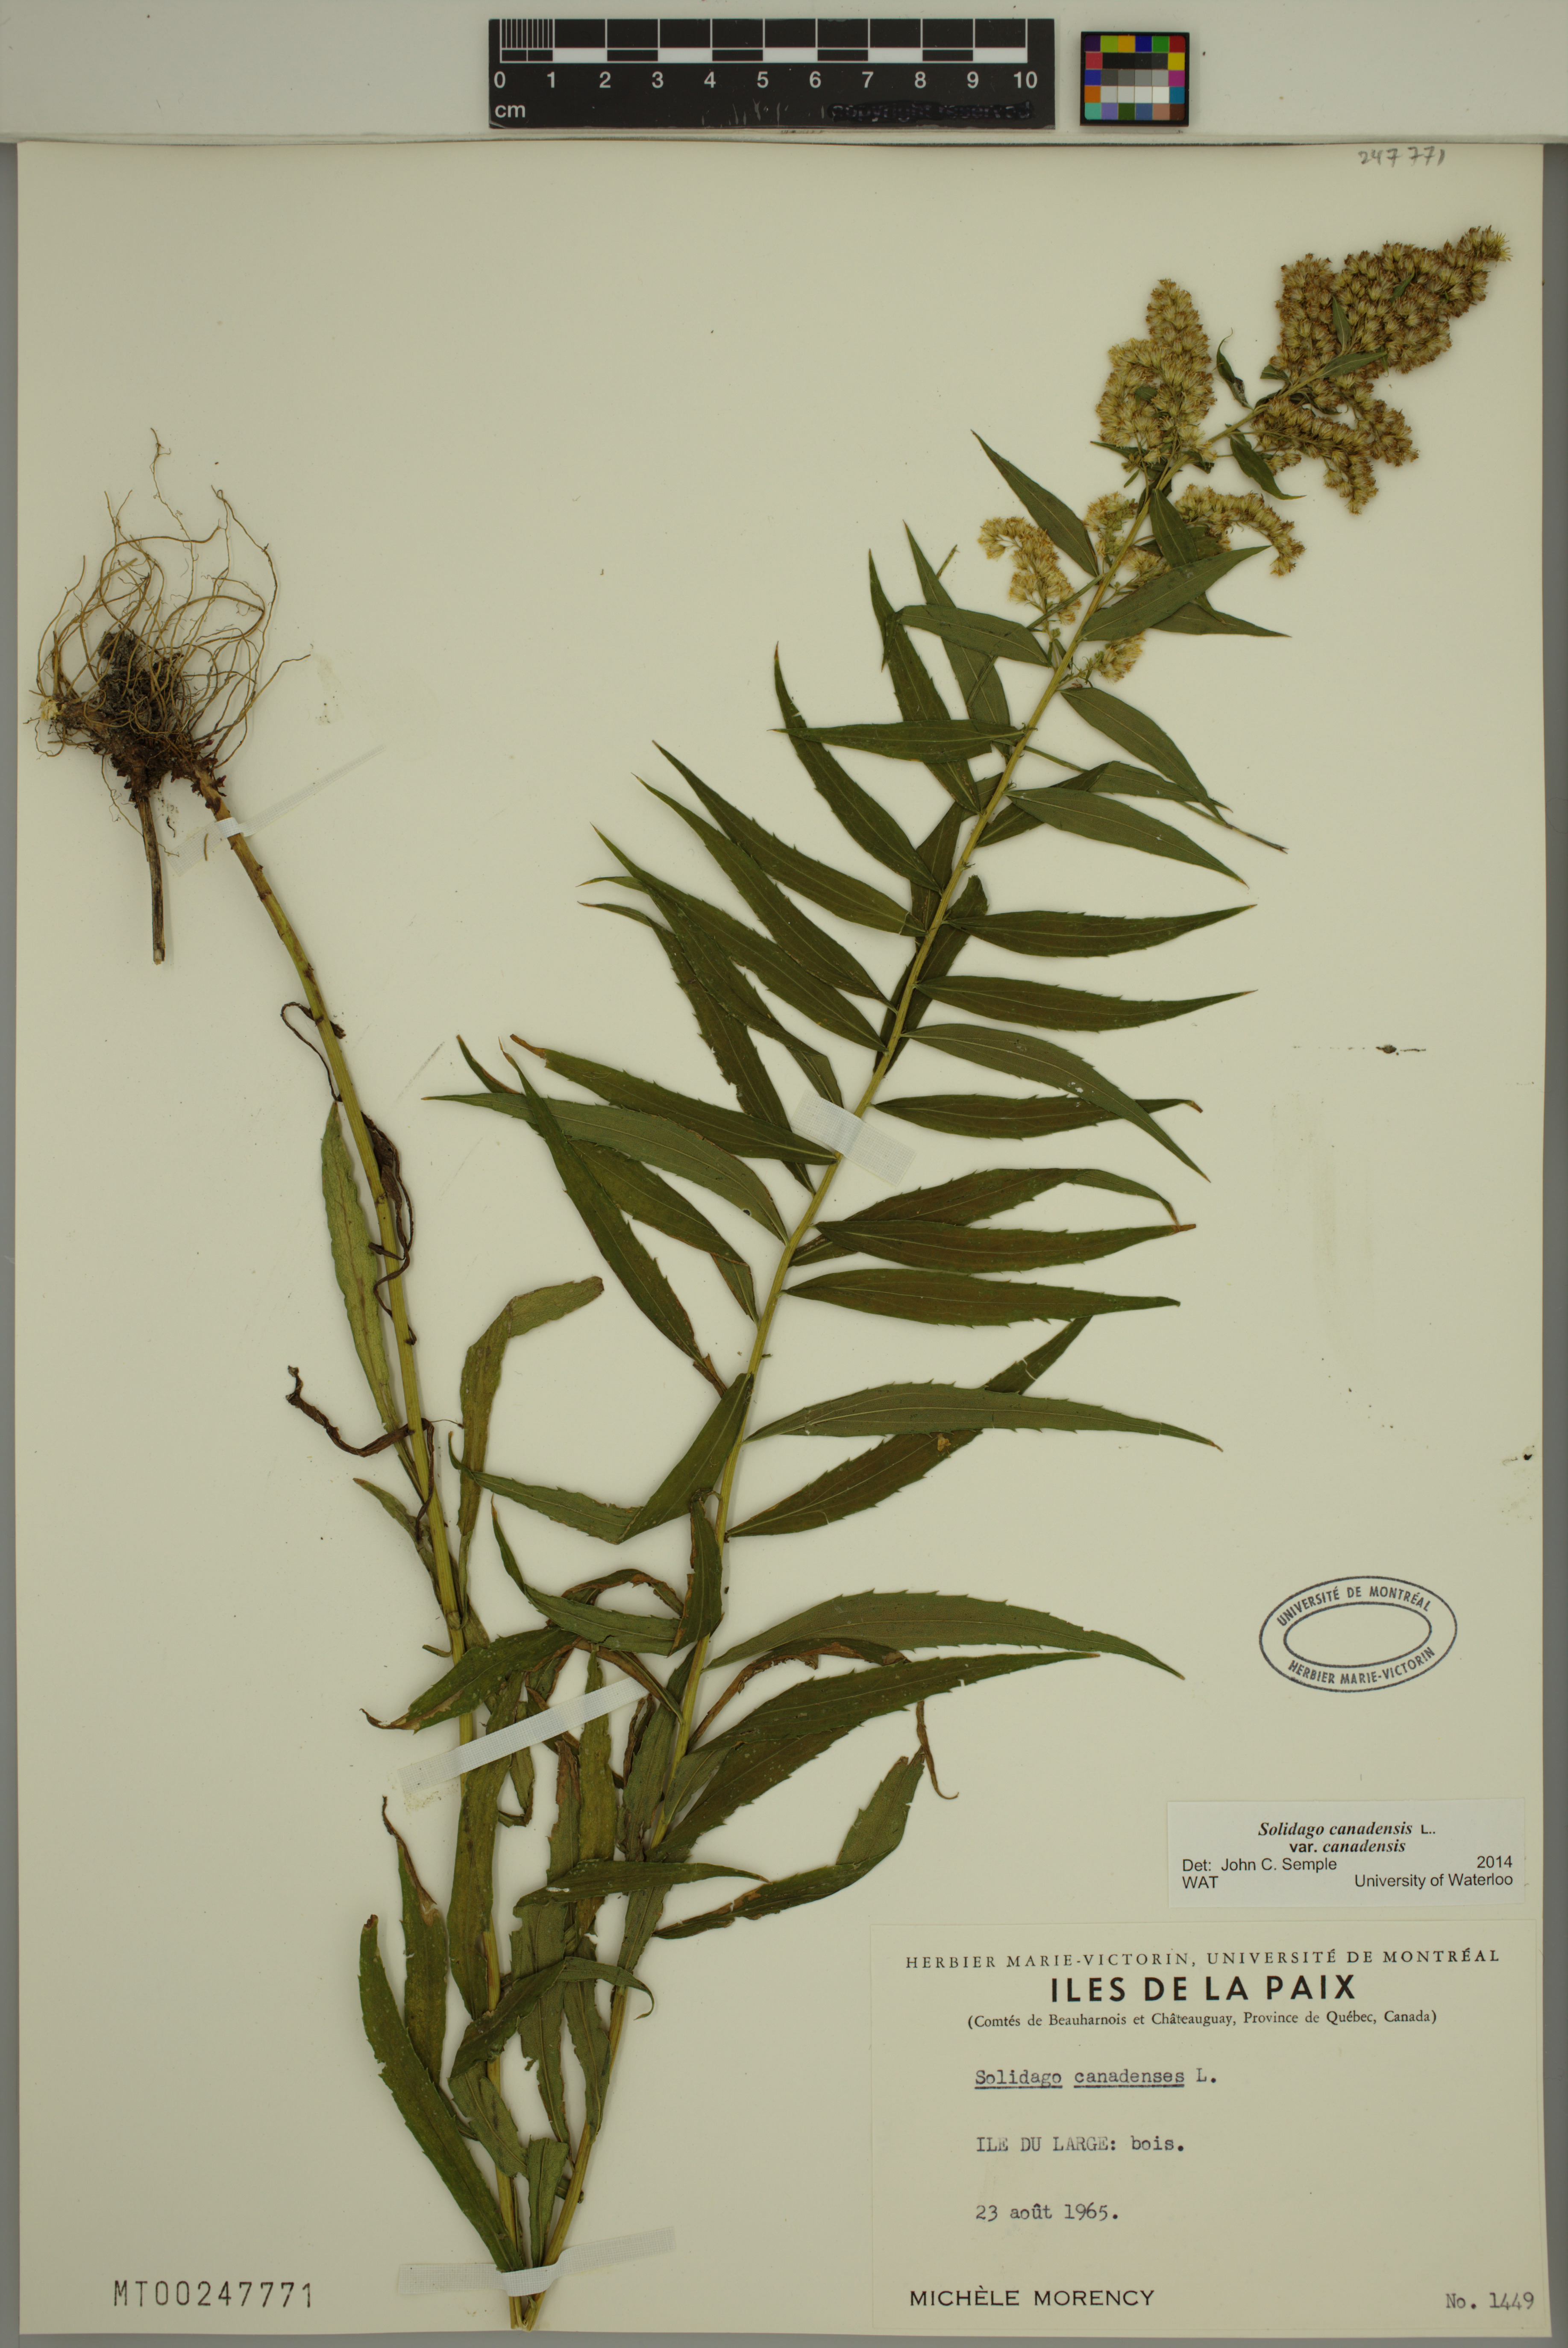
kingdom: Plantae
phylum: Tracheophyta
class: Magnoliopsida
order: Asterales
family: Asteraceae
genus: Solidago
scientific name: Solidago canadensis
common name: Canada goldenrod
